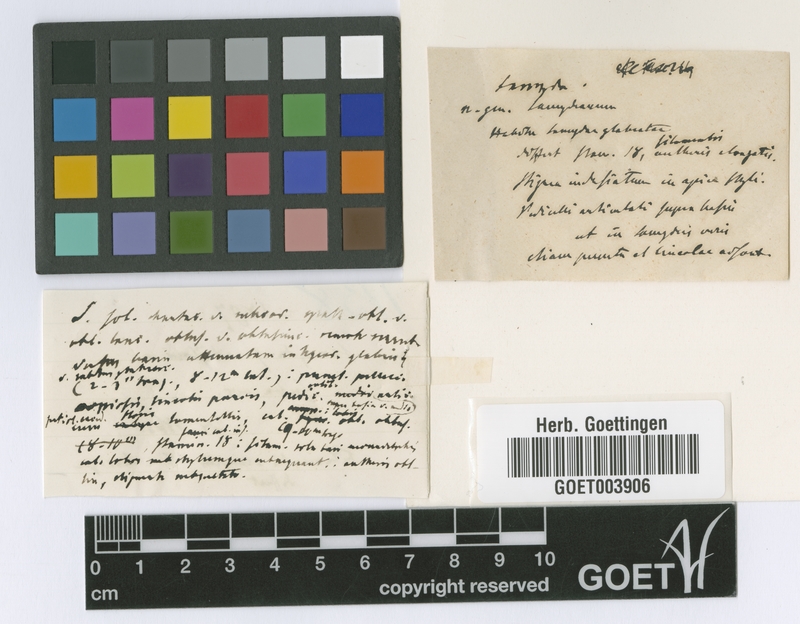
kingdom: Plantae
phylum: Tracheophyta
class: Magnoliopsida
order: Malpighiales
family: Salicaceae
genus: Casearia
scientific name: Casearia dolichanthera
